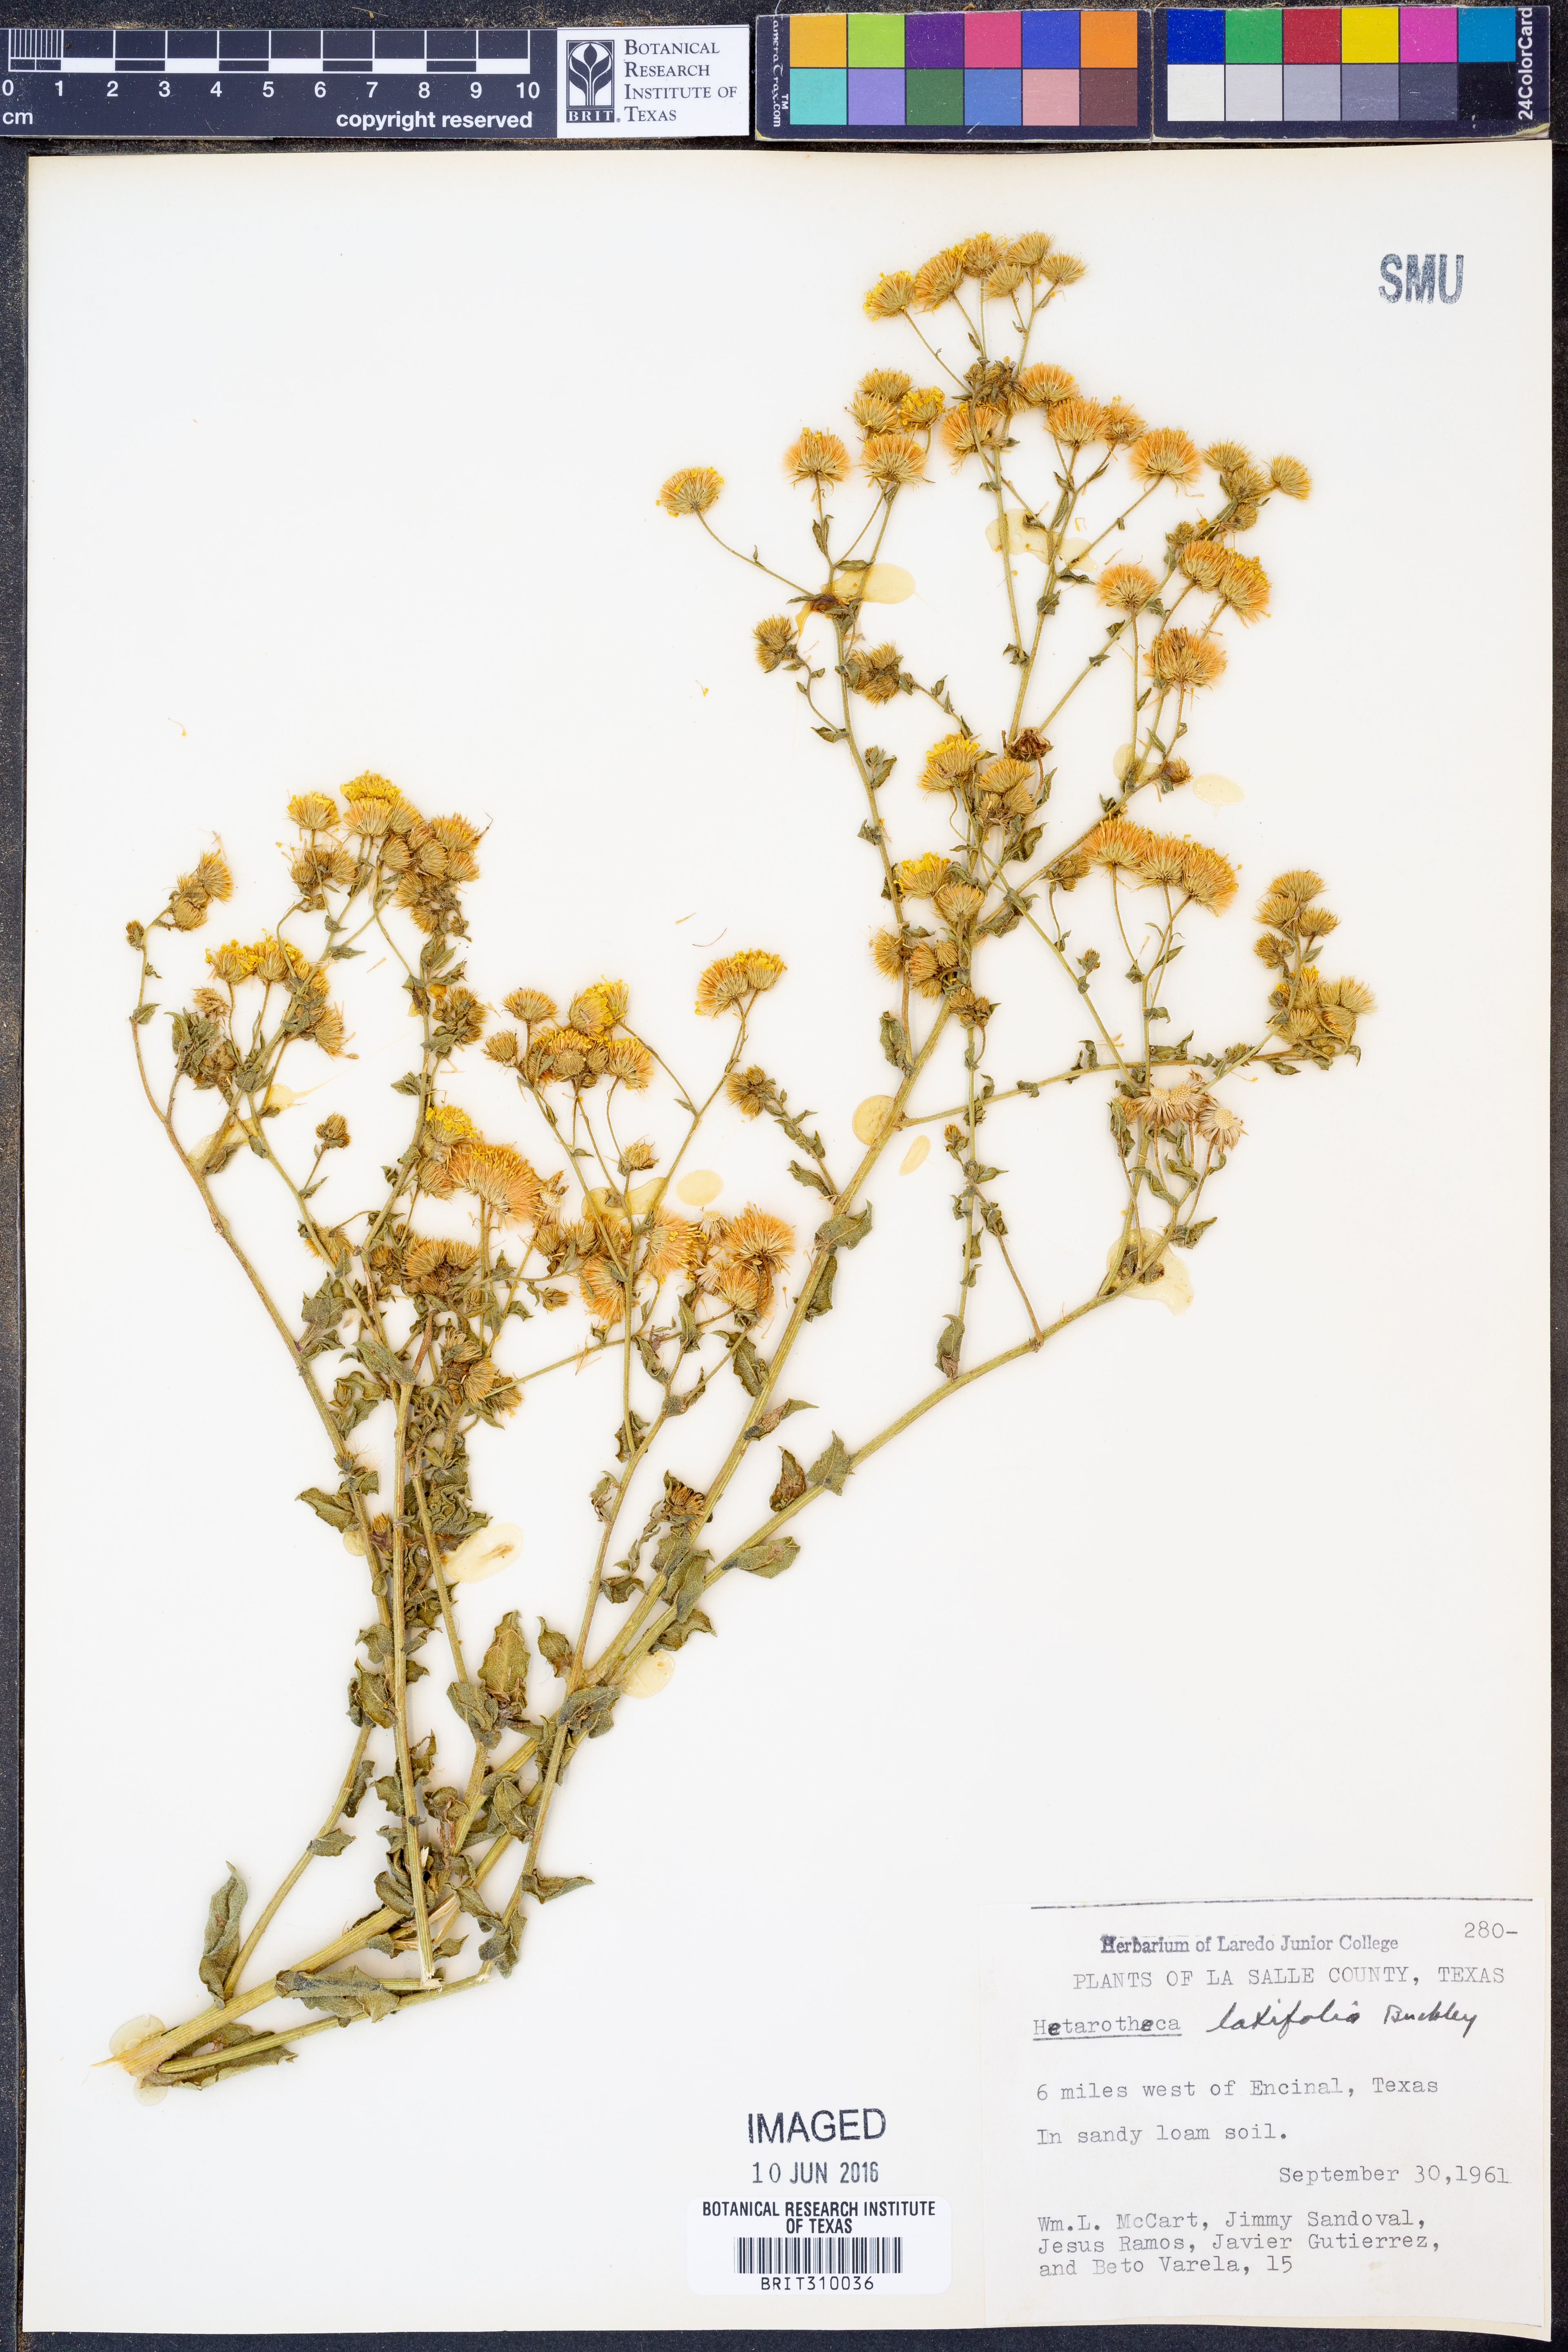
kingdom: Plantae
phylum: Tracheophyta
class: Magnoliopsida
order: Asterales
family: Asteraceae
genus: Heterotheca
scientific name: Heterotheca subaxillaris
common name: Camphorweed
